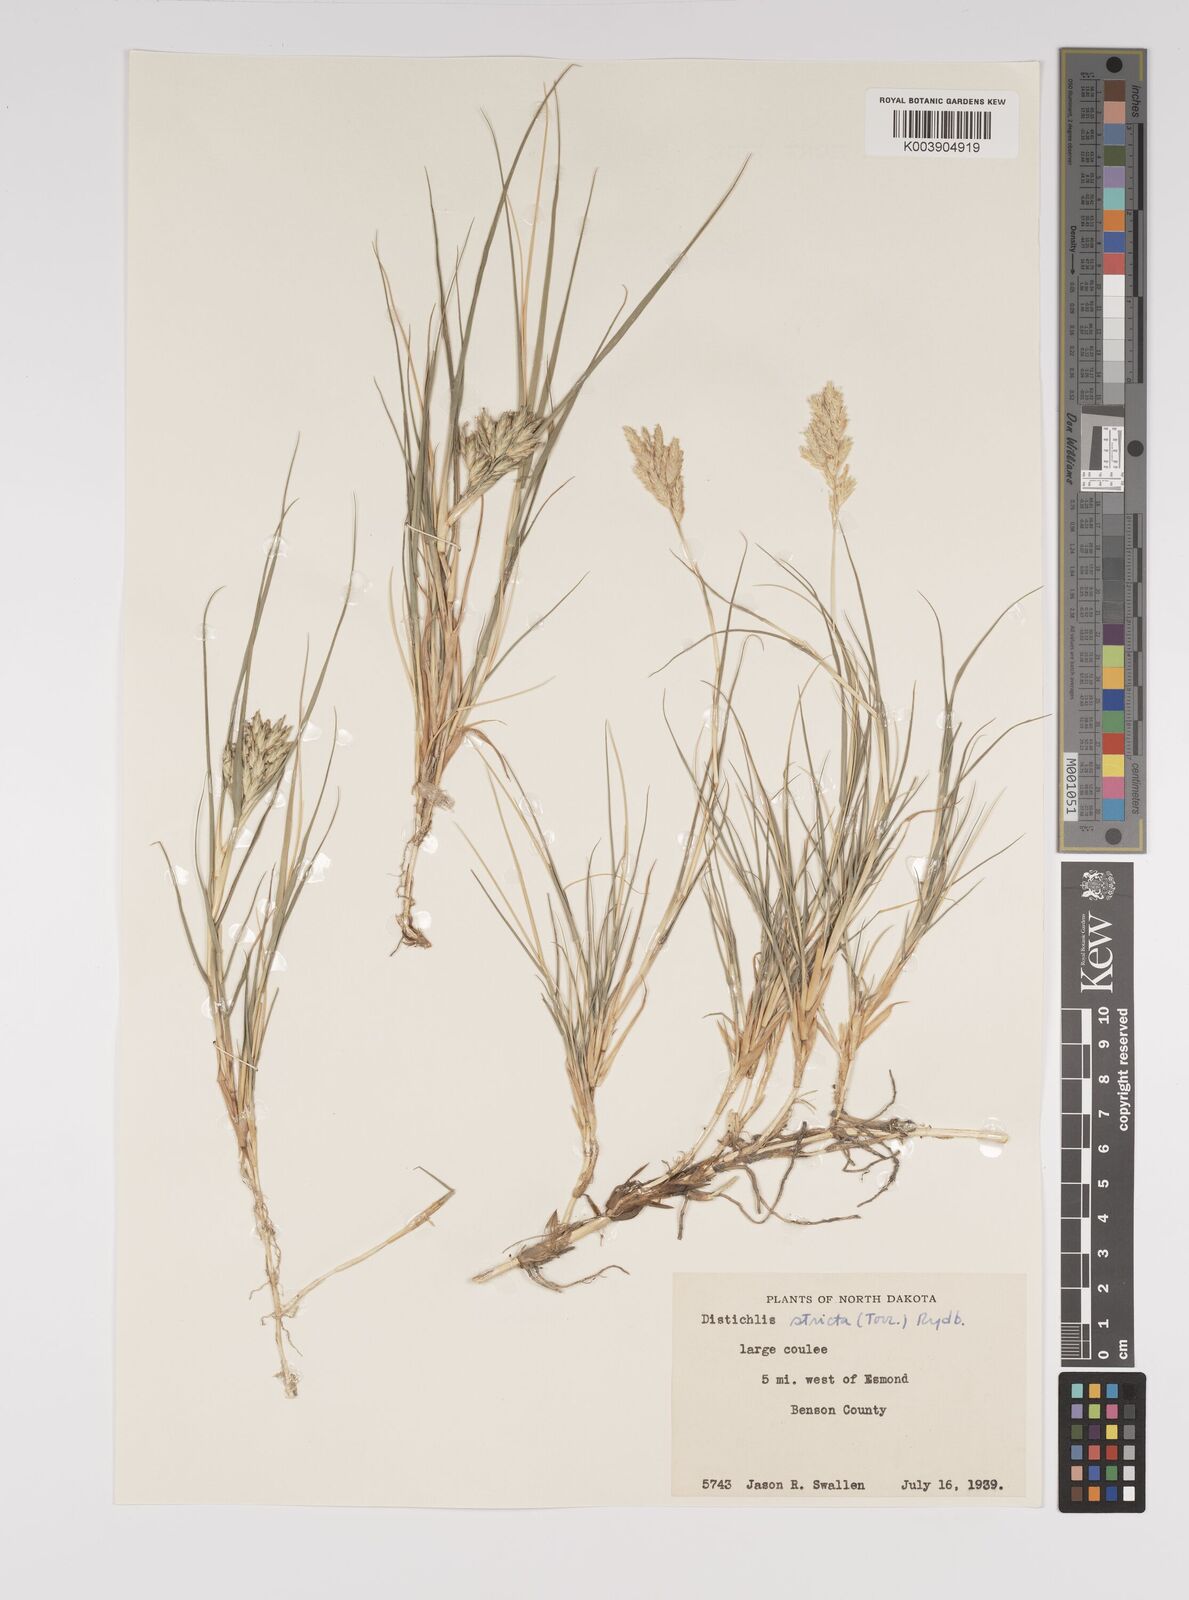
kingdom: Plantae
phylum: Tracheophyta
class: Liliopsida
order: Poales
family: Poaceae
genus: Distichlis
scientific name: Distichlis spicata
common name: Saltgrass
